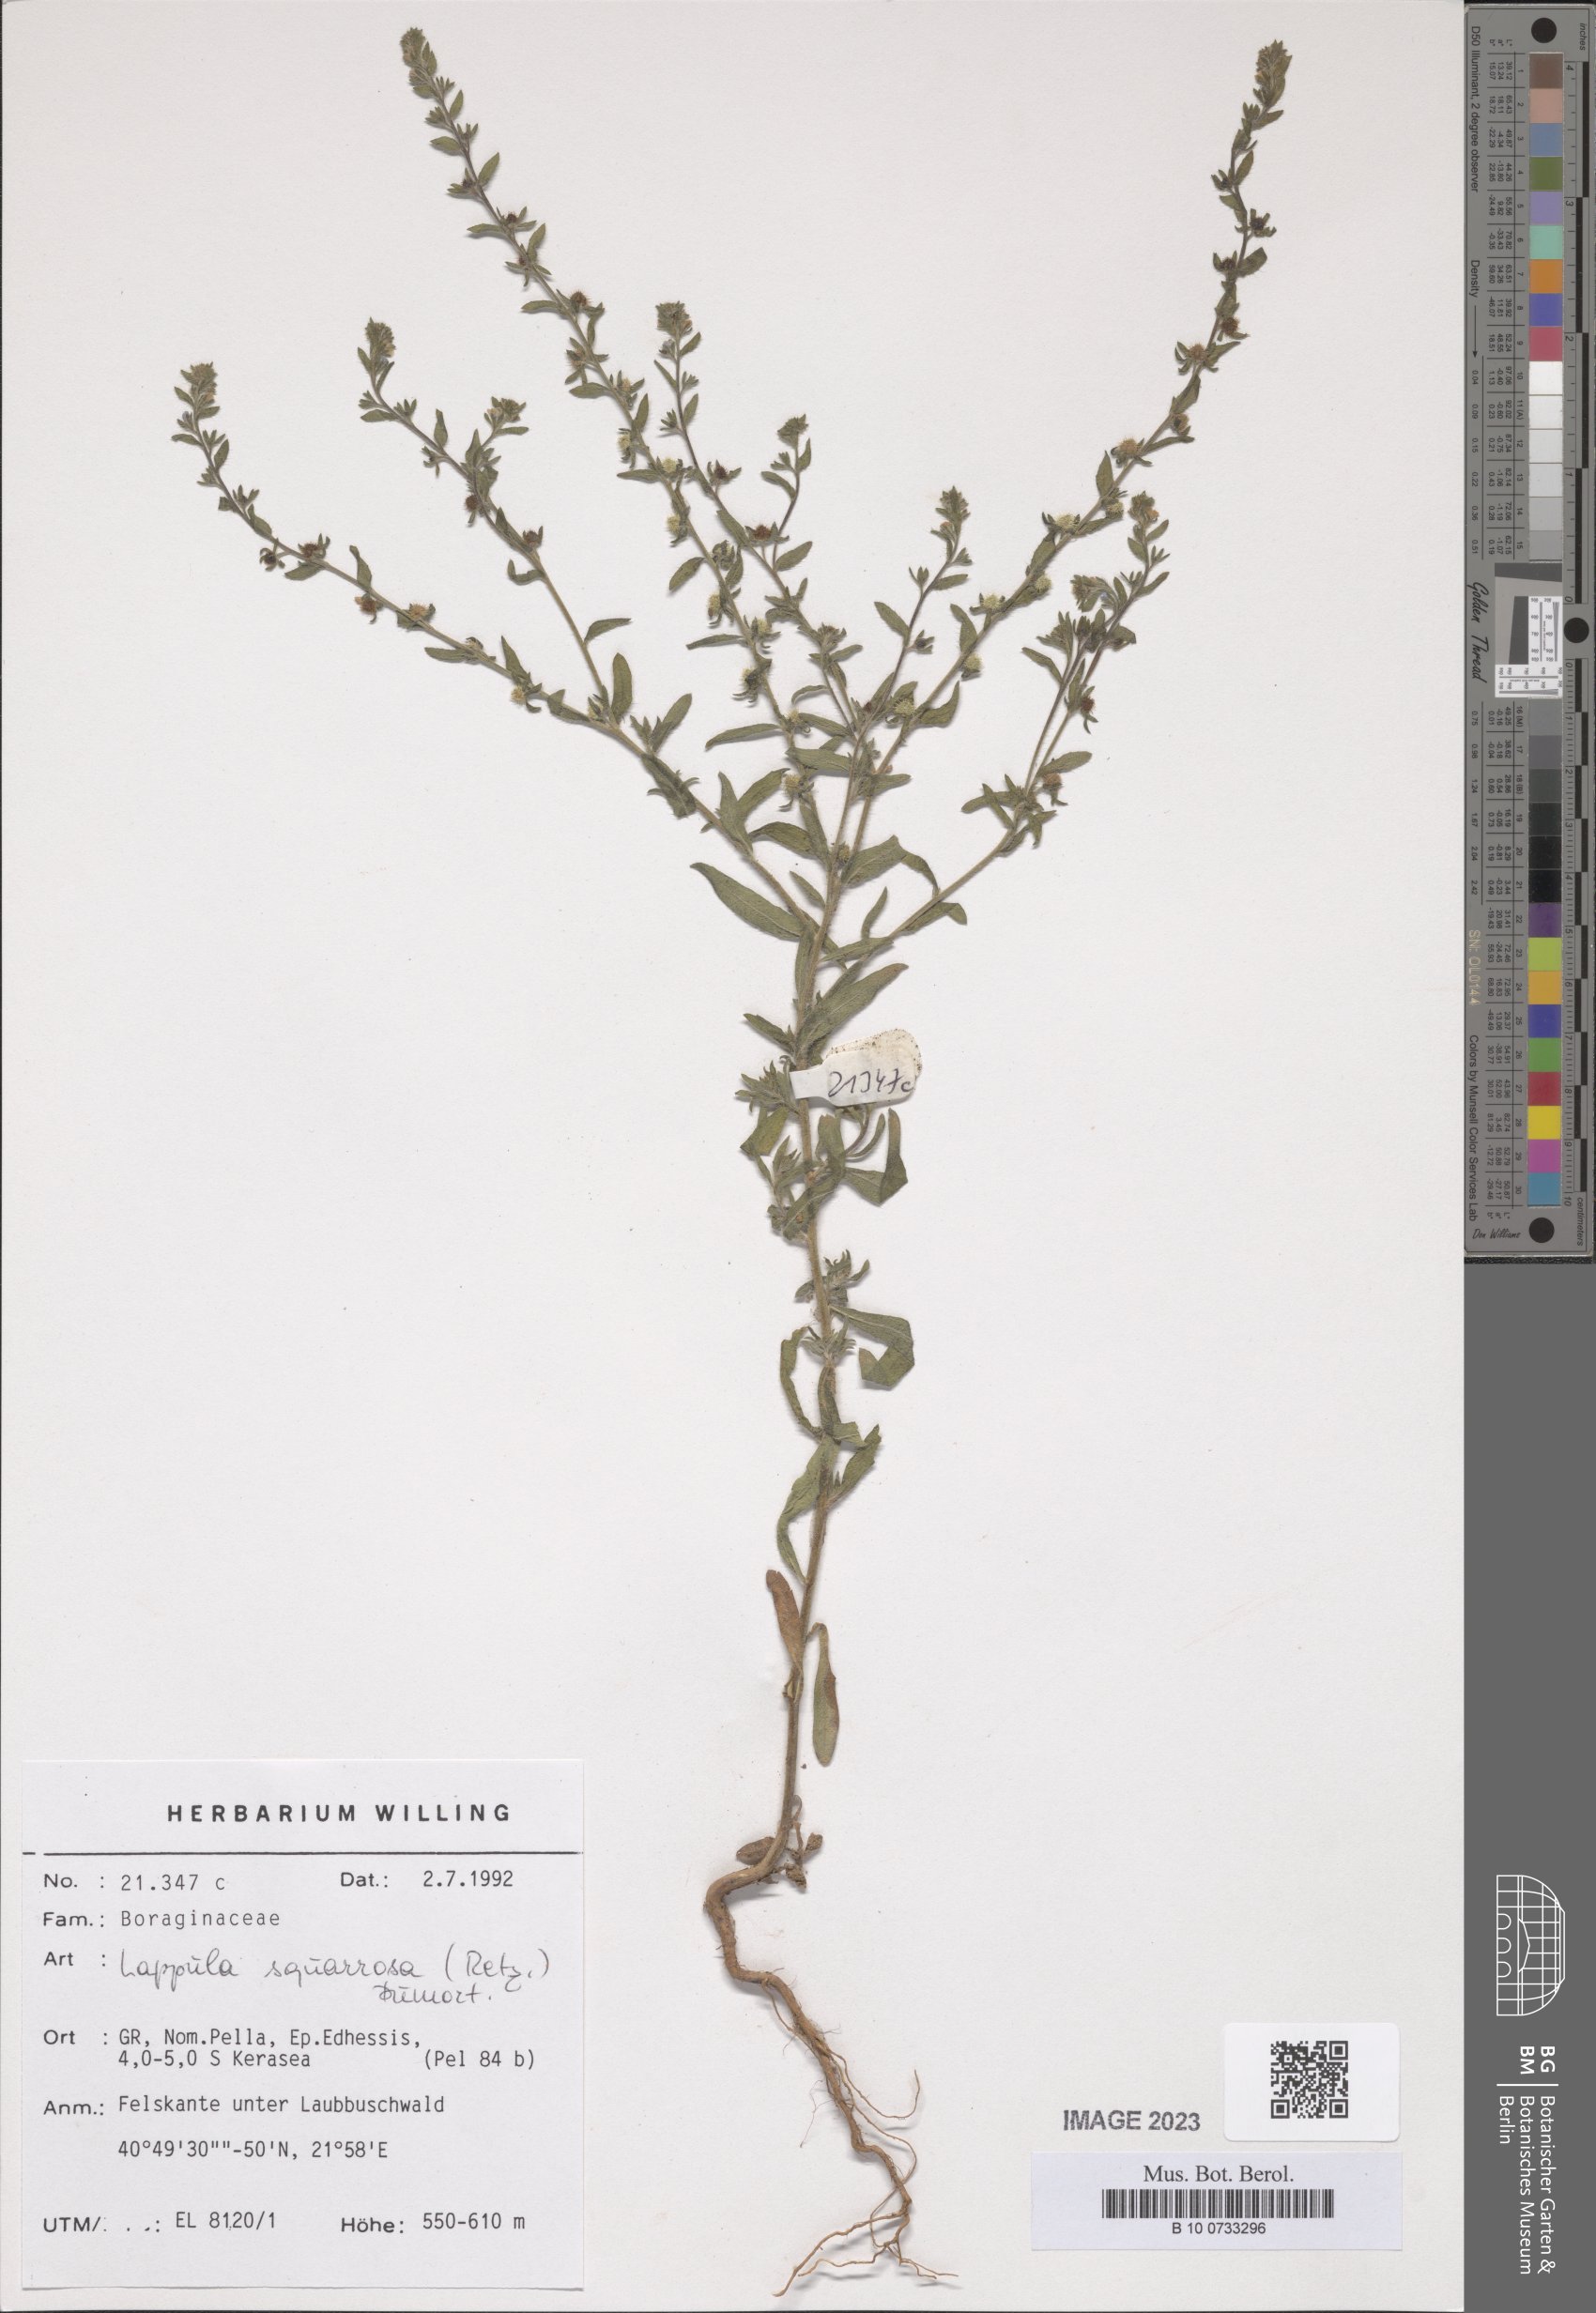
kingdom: Plantae
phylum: Tracheophyta
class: Magnoliopsida
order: Boraginales
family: Boraginaceae
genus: Lappula
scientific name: Lappula squarrosa
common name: European stickseed
